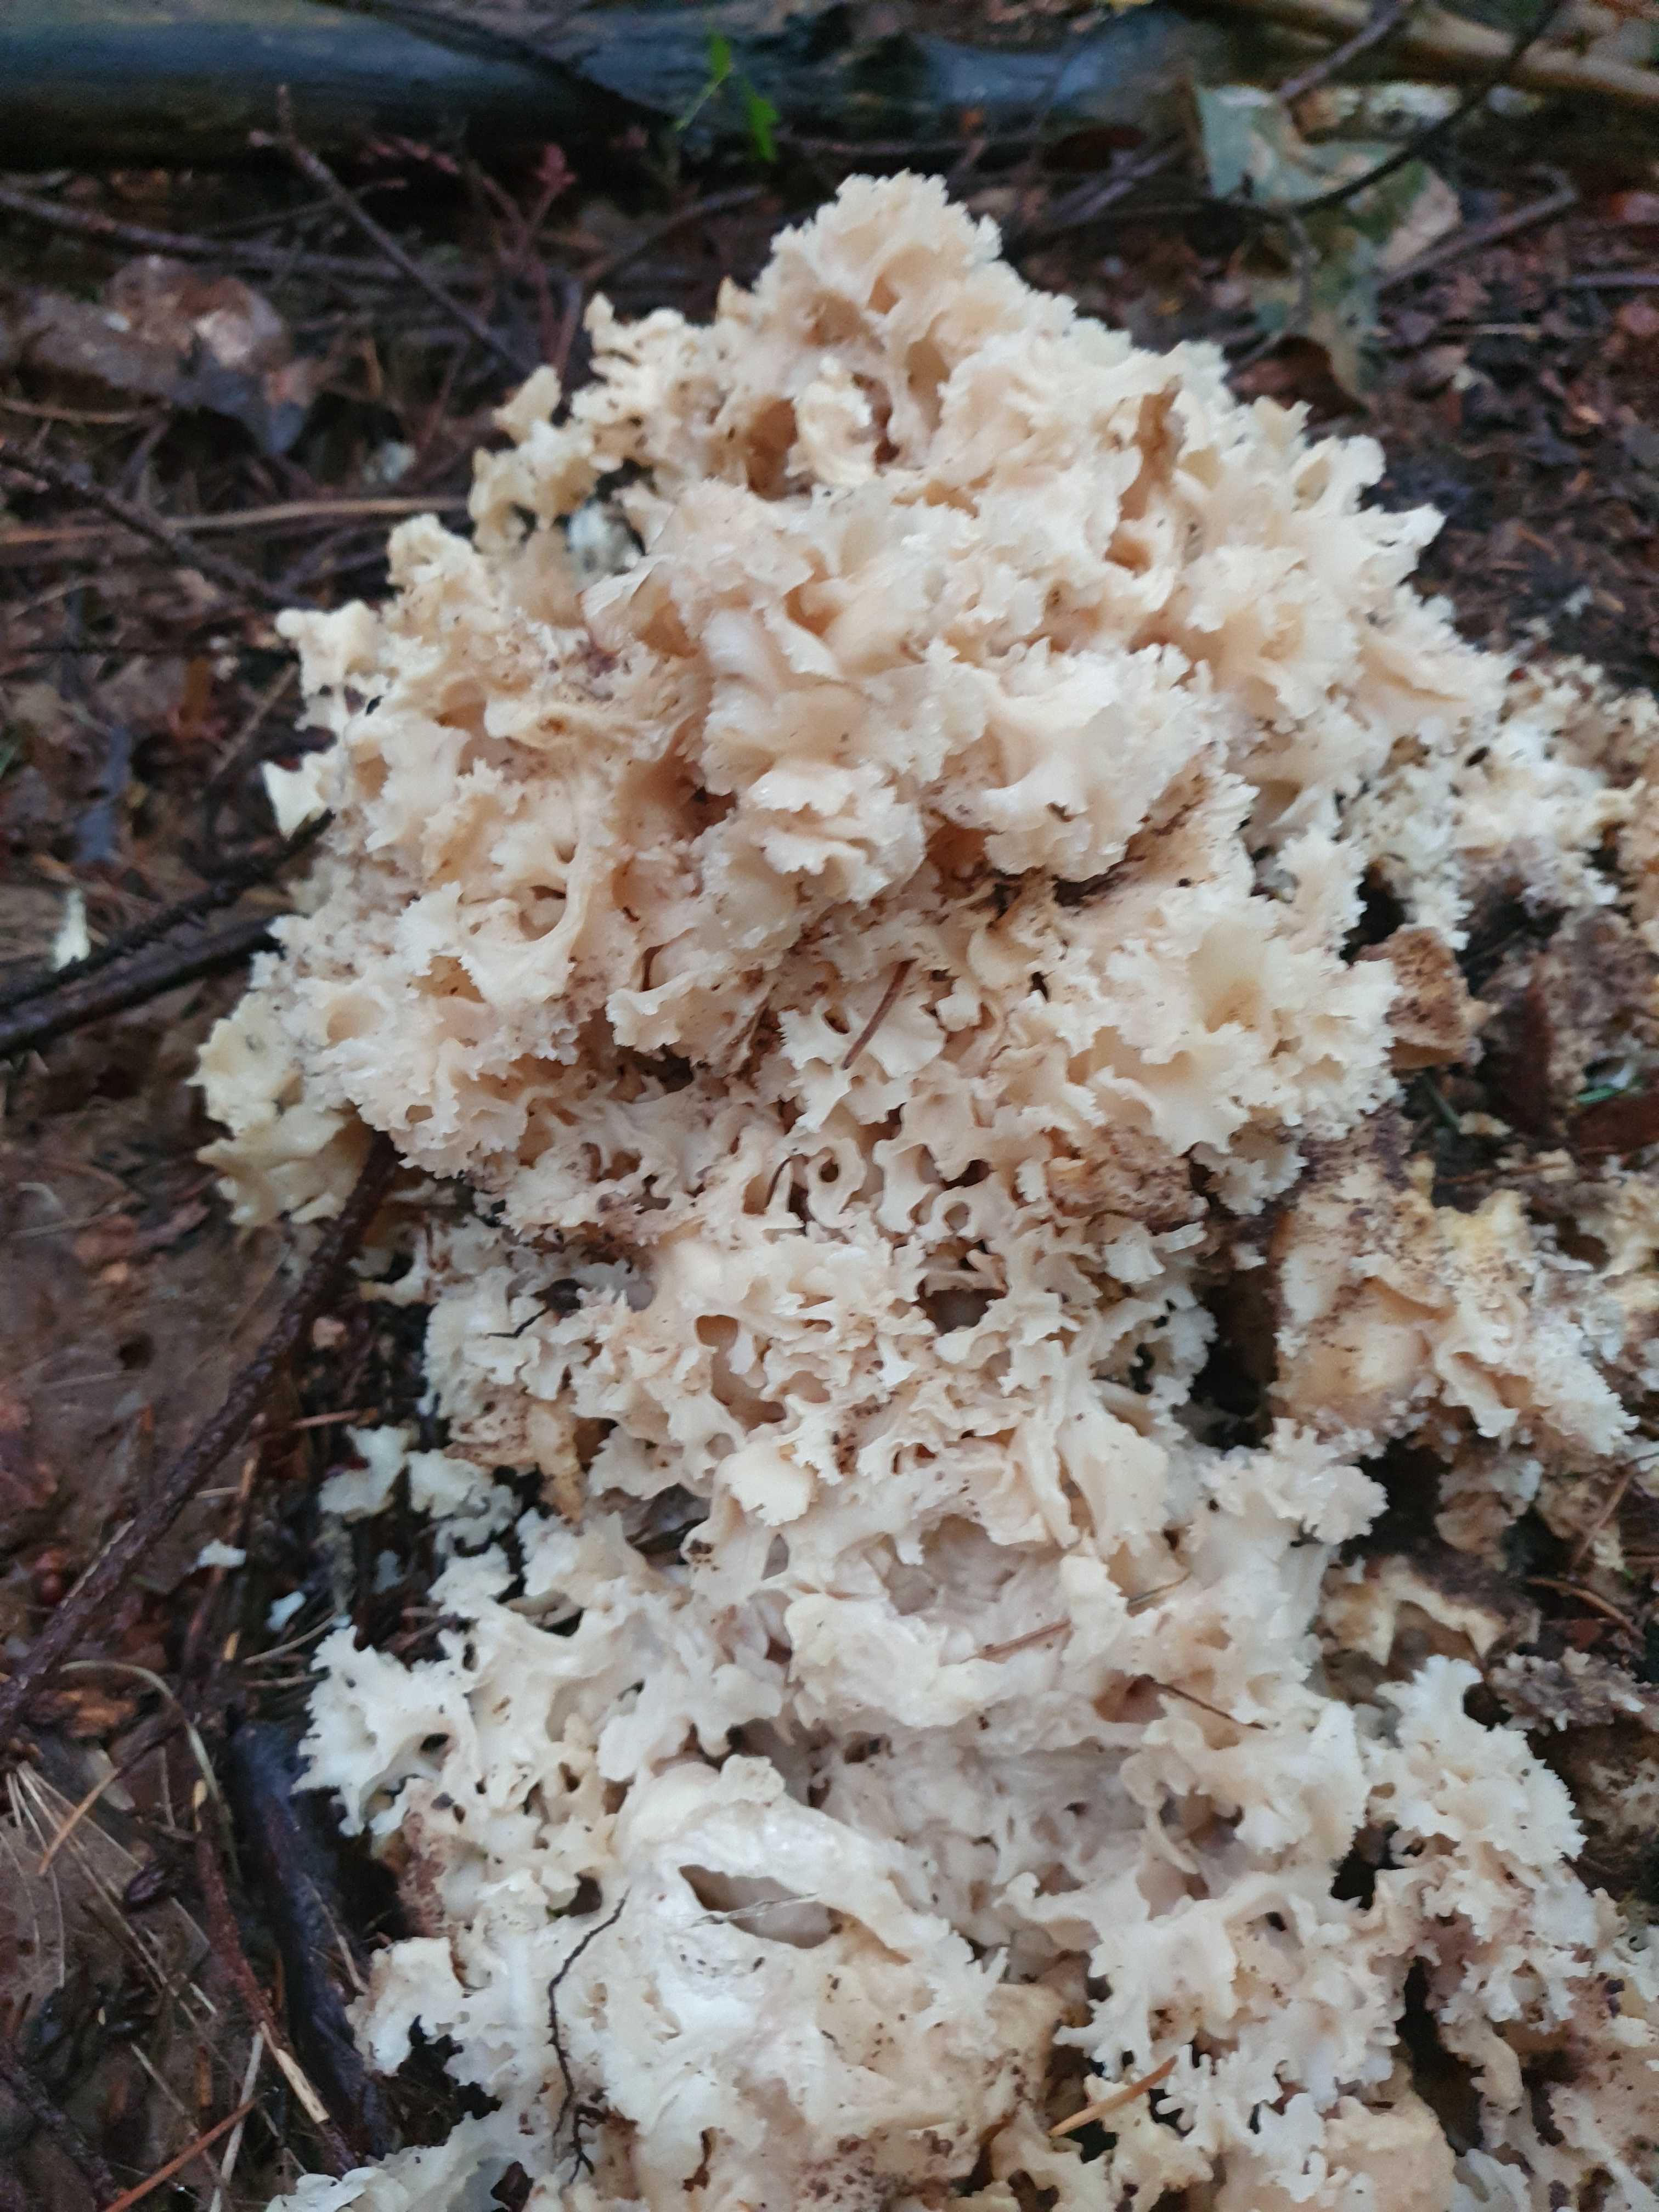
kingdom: Fungi
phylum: Basidiomycota
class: Agaricomycetes
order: Polyporales
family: Sparassidaceae
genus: Sparassis
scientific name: Sparassis crispa
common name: kruset blomkålssvamp
